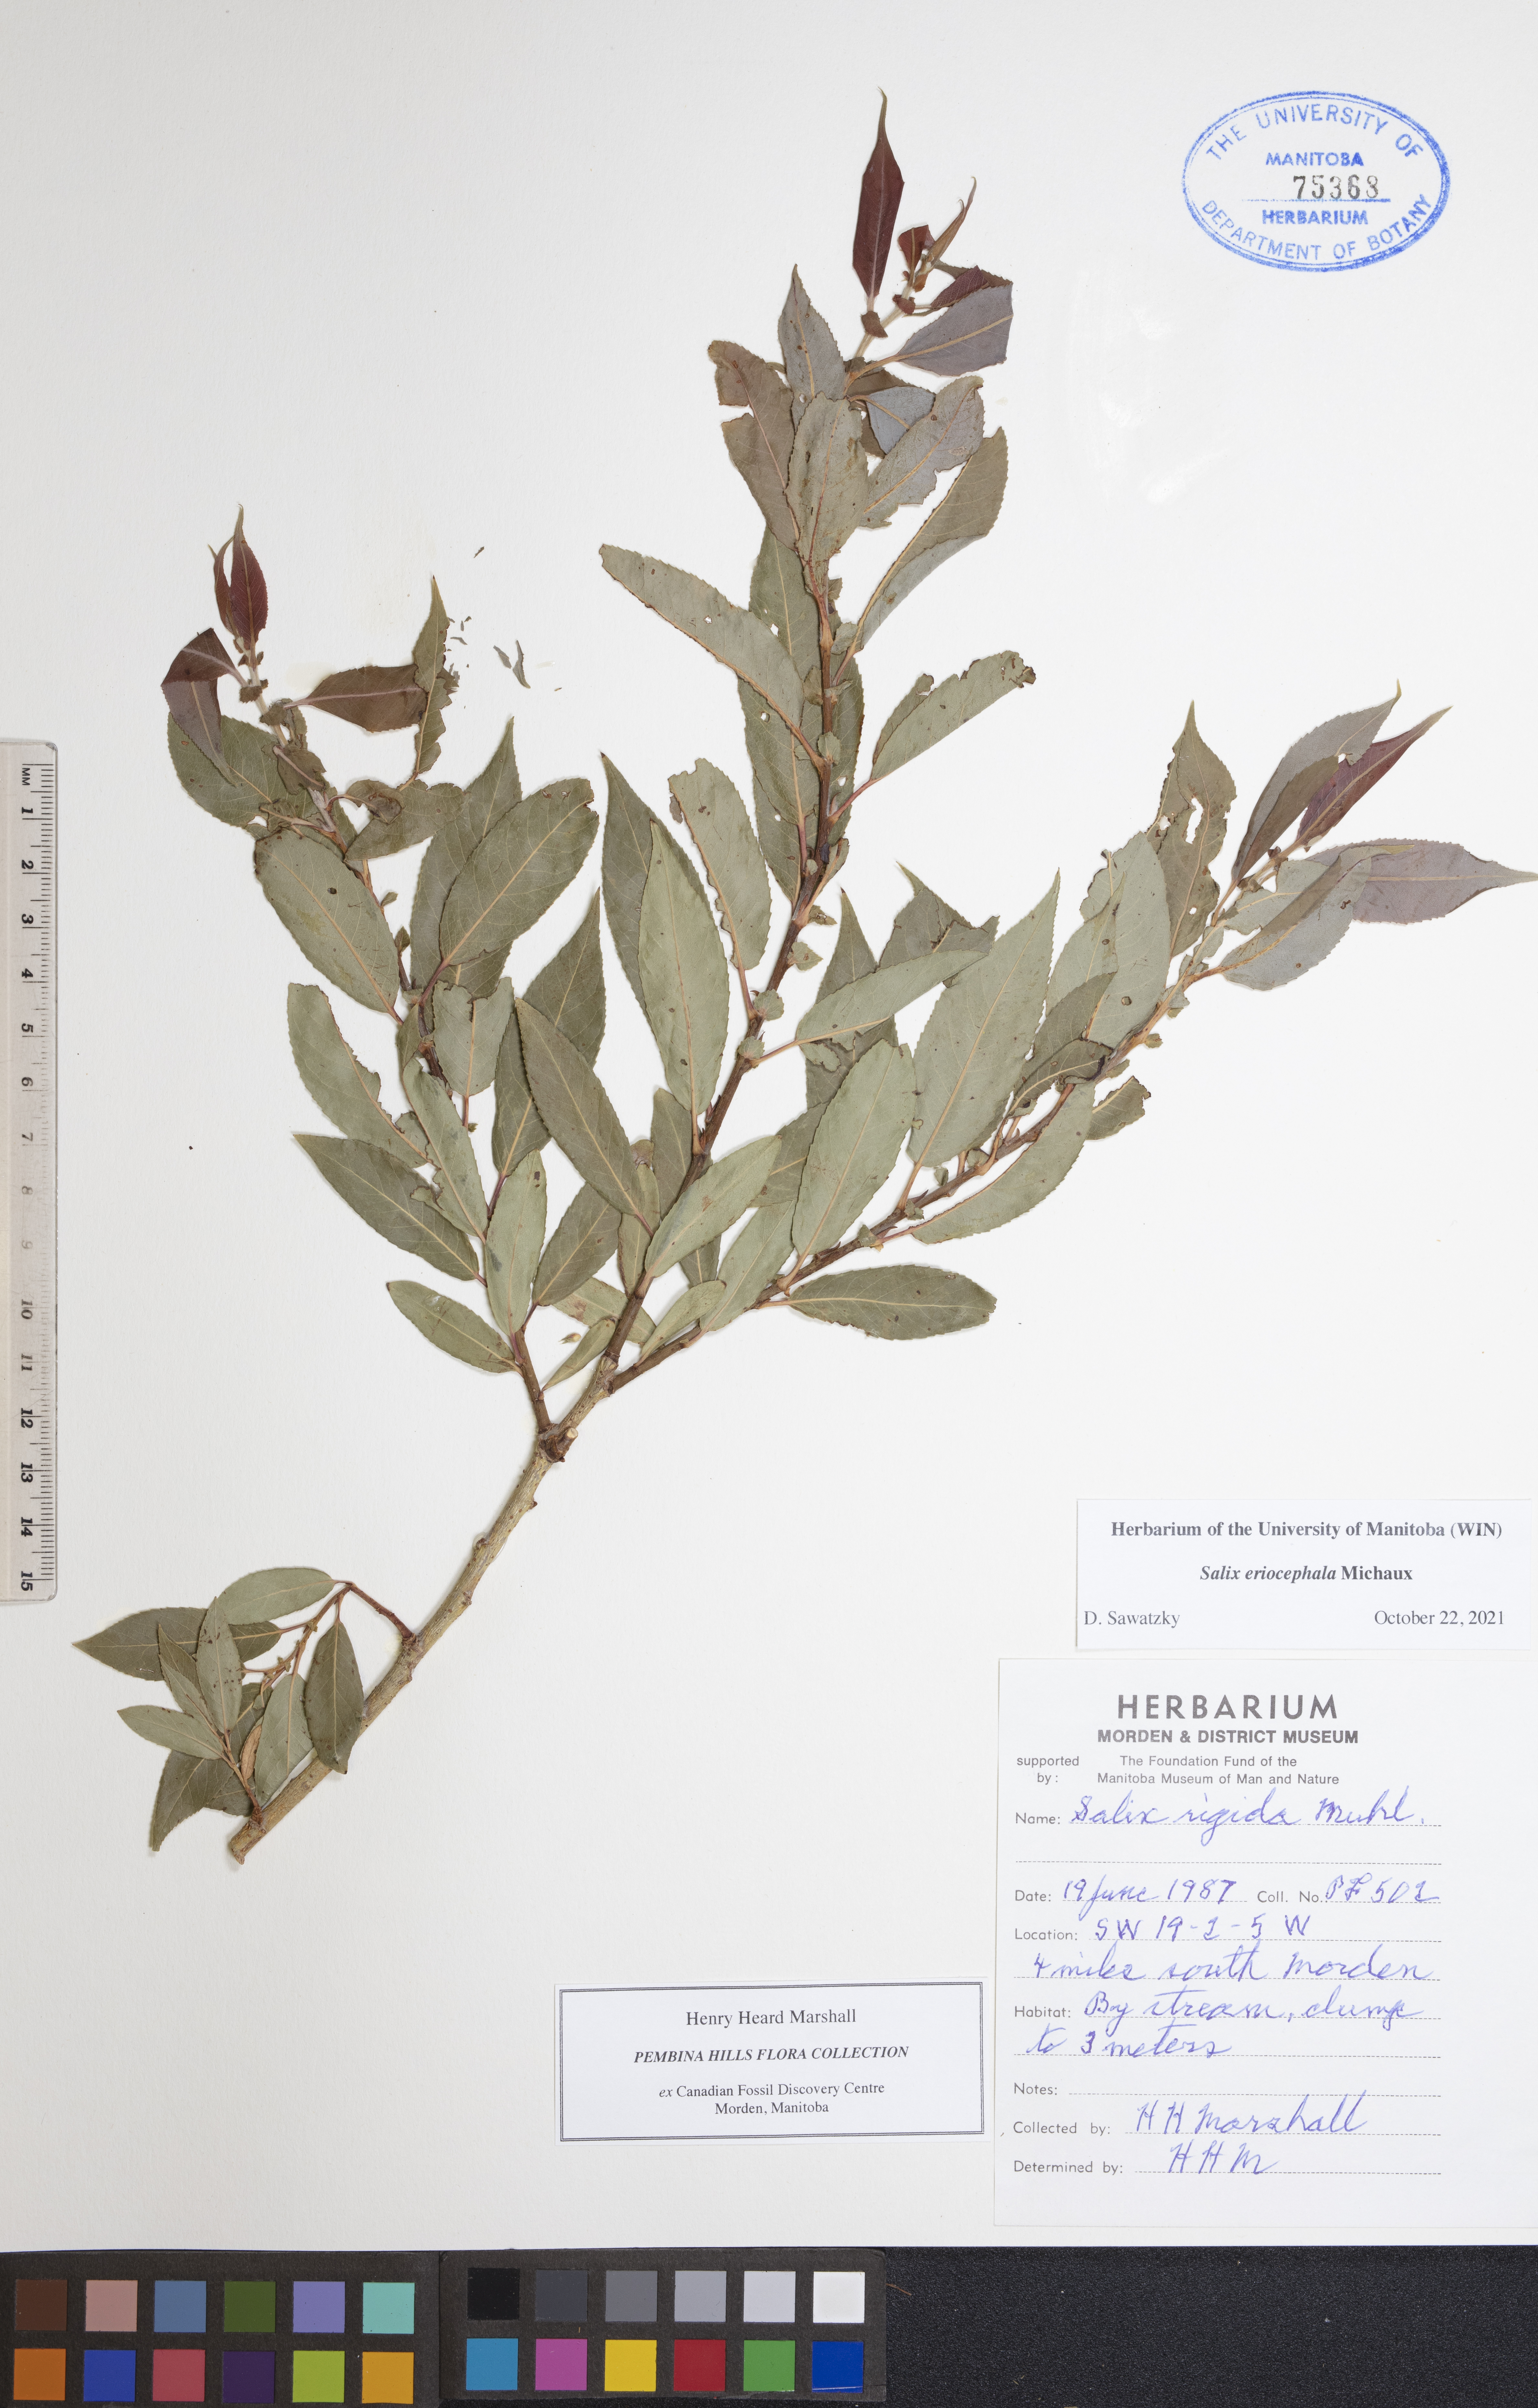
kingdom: Plantae
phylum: Tracheophyta
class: Magnoliopsida
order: Malpighiales
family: Salicaceae
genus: Salix
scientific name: Salix eriocephala
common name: Heart-leaved willow
